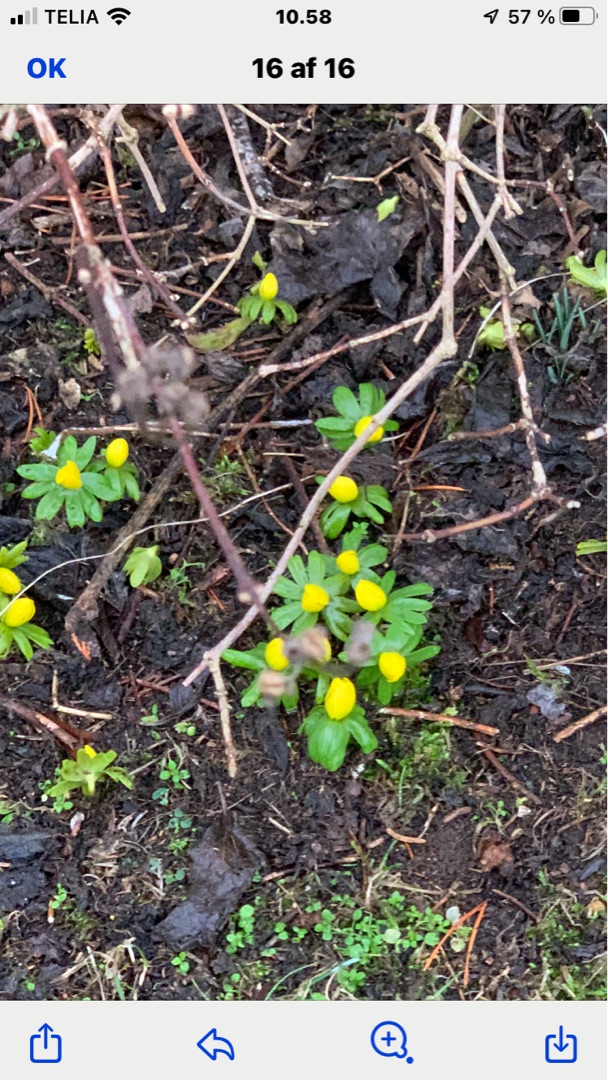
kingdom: Plantae
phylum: Tracheophyta
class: Magnoliopsida
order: Ranunculales
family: Ranunculaceae
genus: Eranthis
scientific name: Eranthis hyemalis
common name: Erantis
